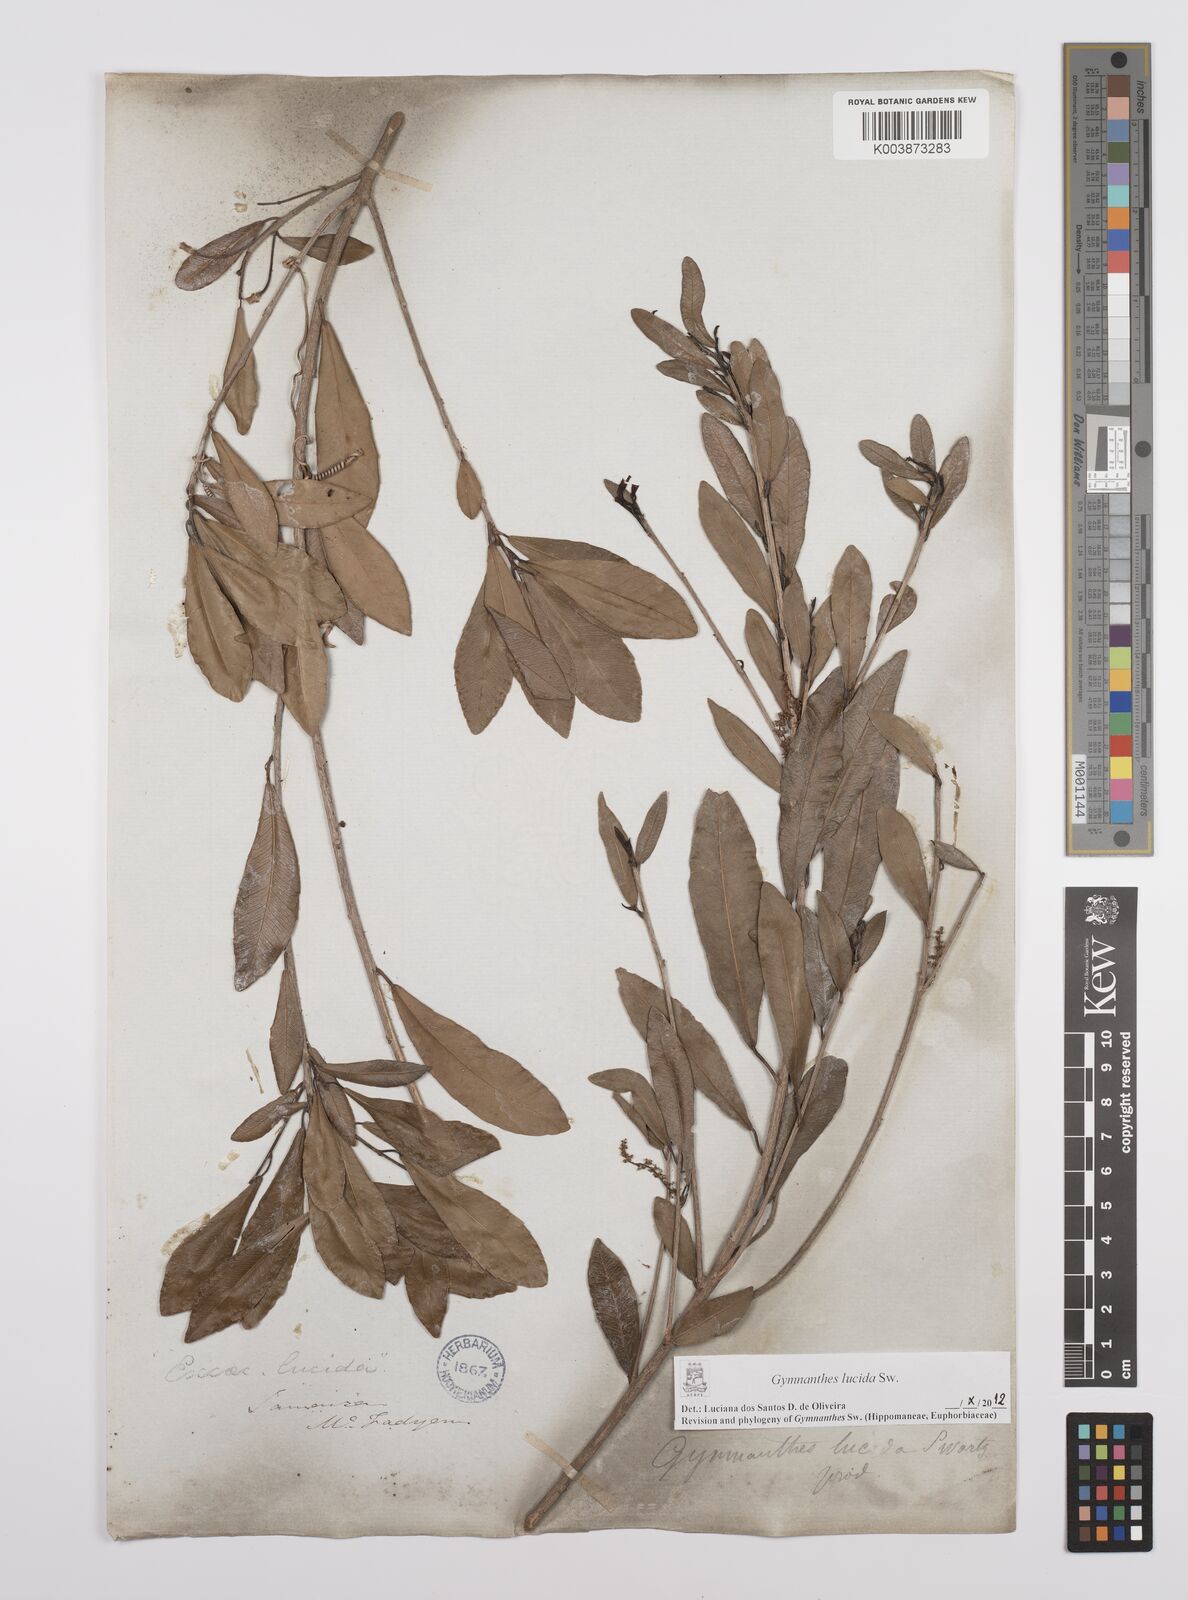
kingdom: Plantae
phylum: Tracheophyta
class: Magnoliopsida
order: Malpighiales
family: Euphorbiaceae
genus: Gymnanthes
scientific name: Gymnanthes lucida
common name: Oysterwood
